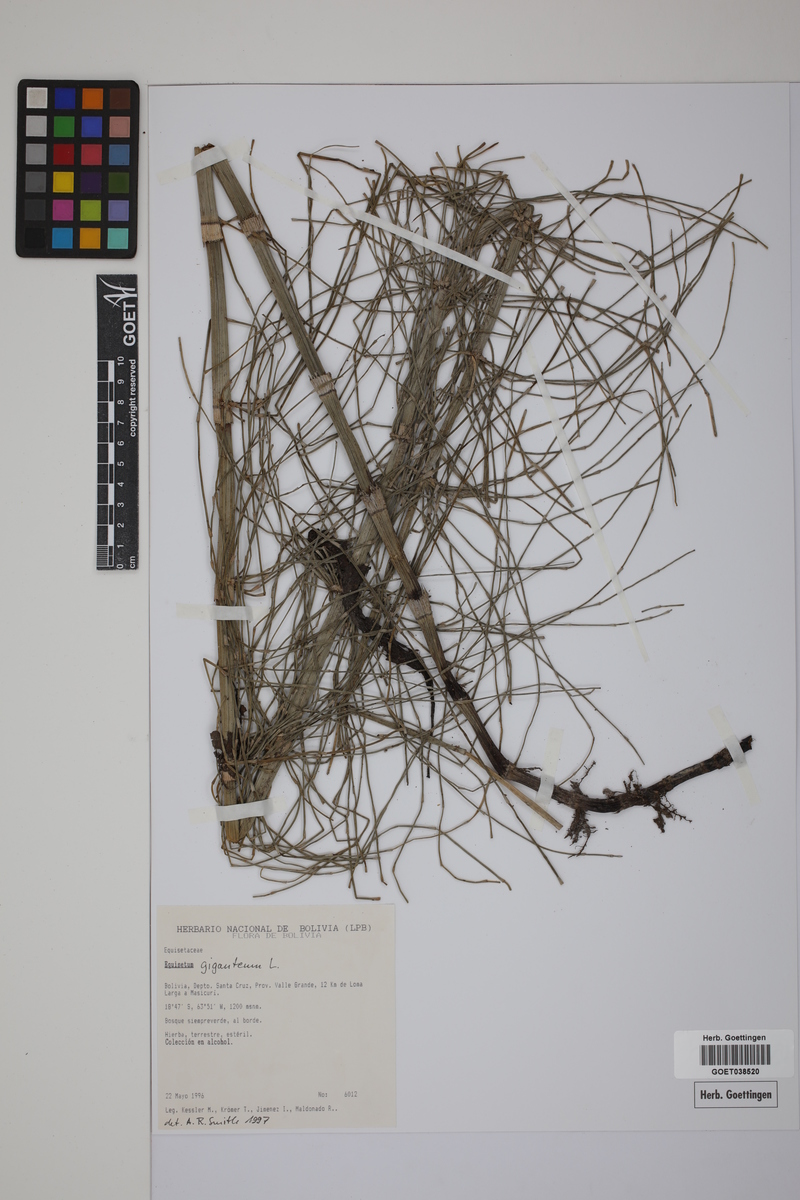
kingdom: Plantae
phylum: Tracheophyta
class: Polypodiopsida
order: Equisetales
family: Equisetaceae
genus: Equisetum
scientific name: Equisetum giganteum
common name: Giant horsetail
